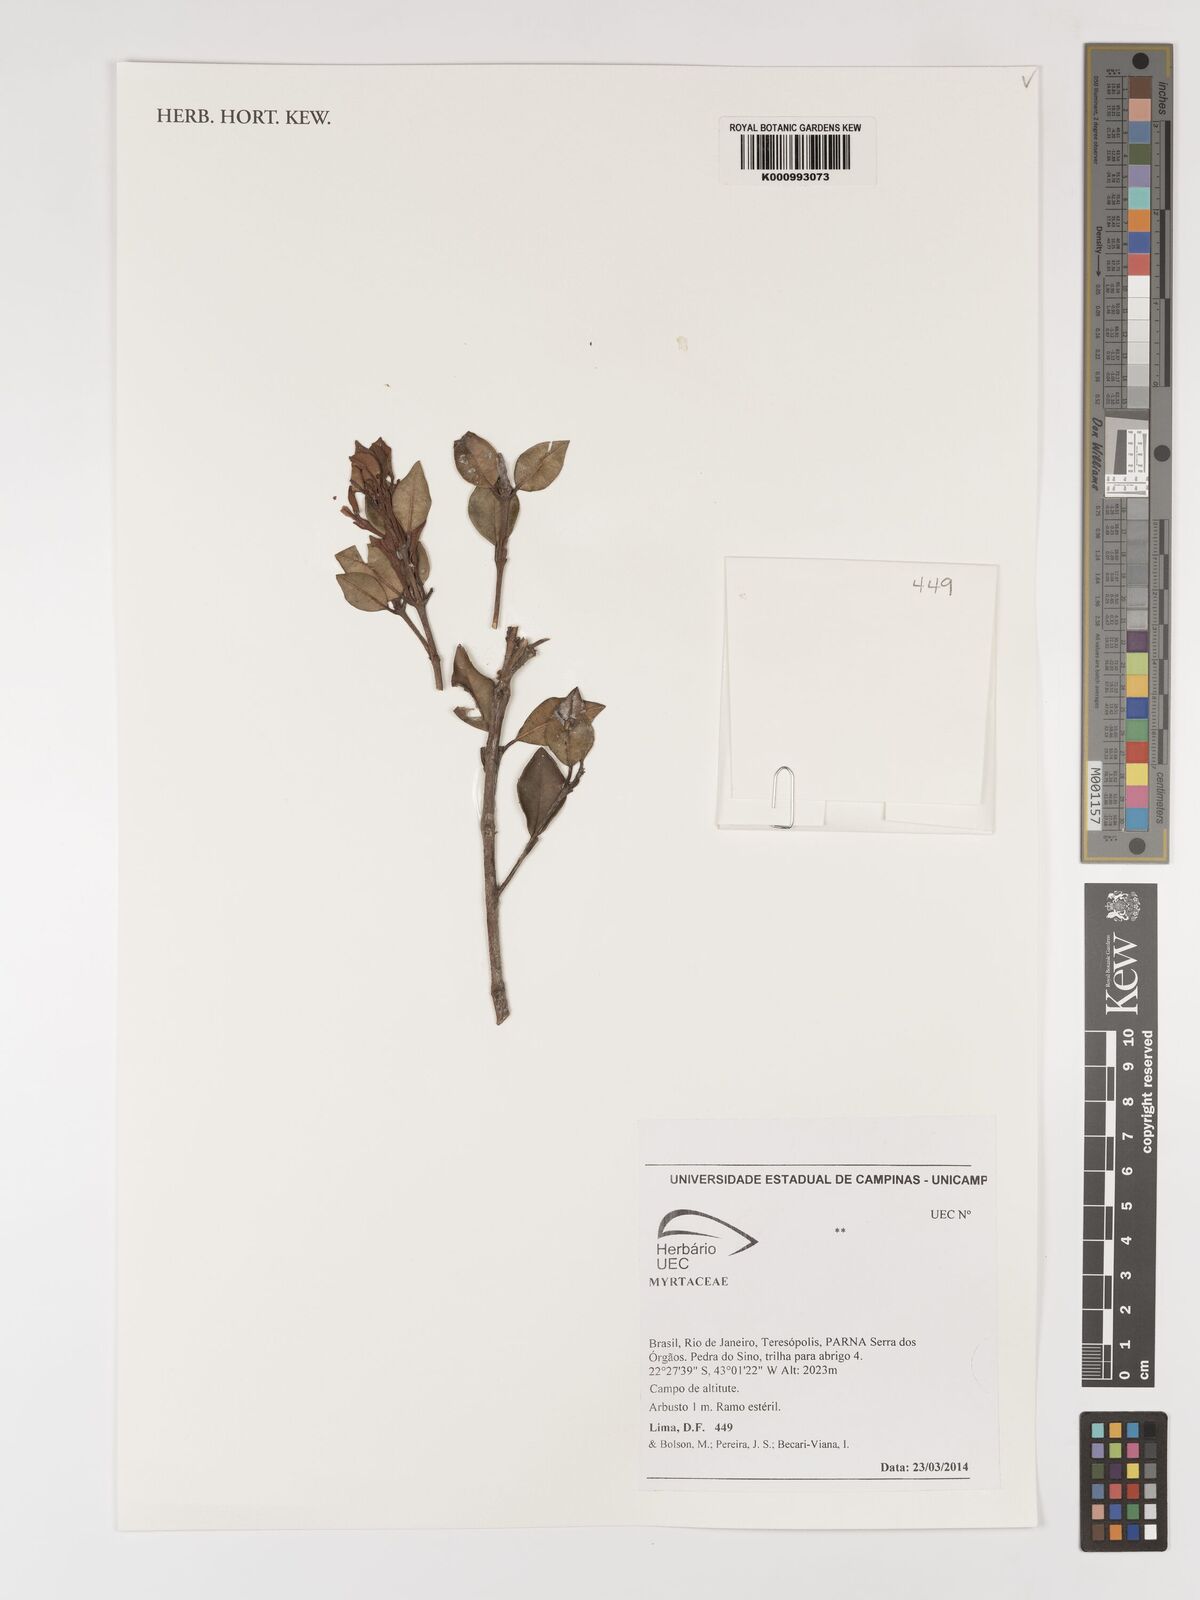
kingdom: Plantae
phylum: Tracheophyta
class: Magnoliopsida
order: Myrtales
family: Myrtaceae
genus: Myrcia
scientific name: Myrcia
